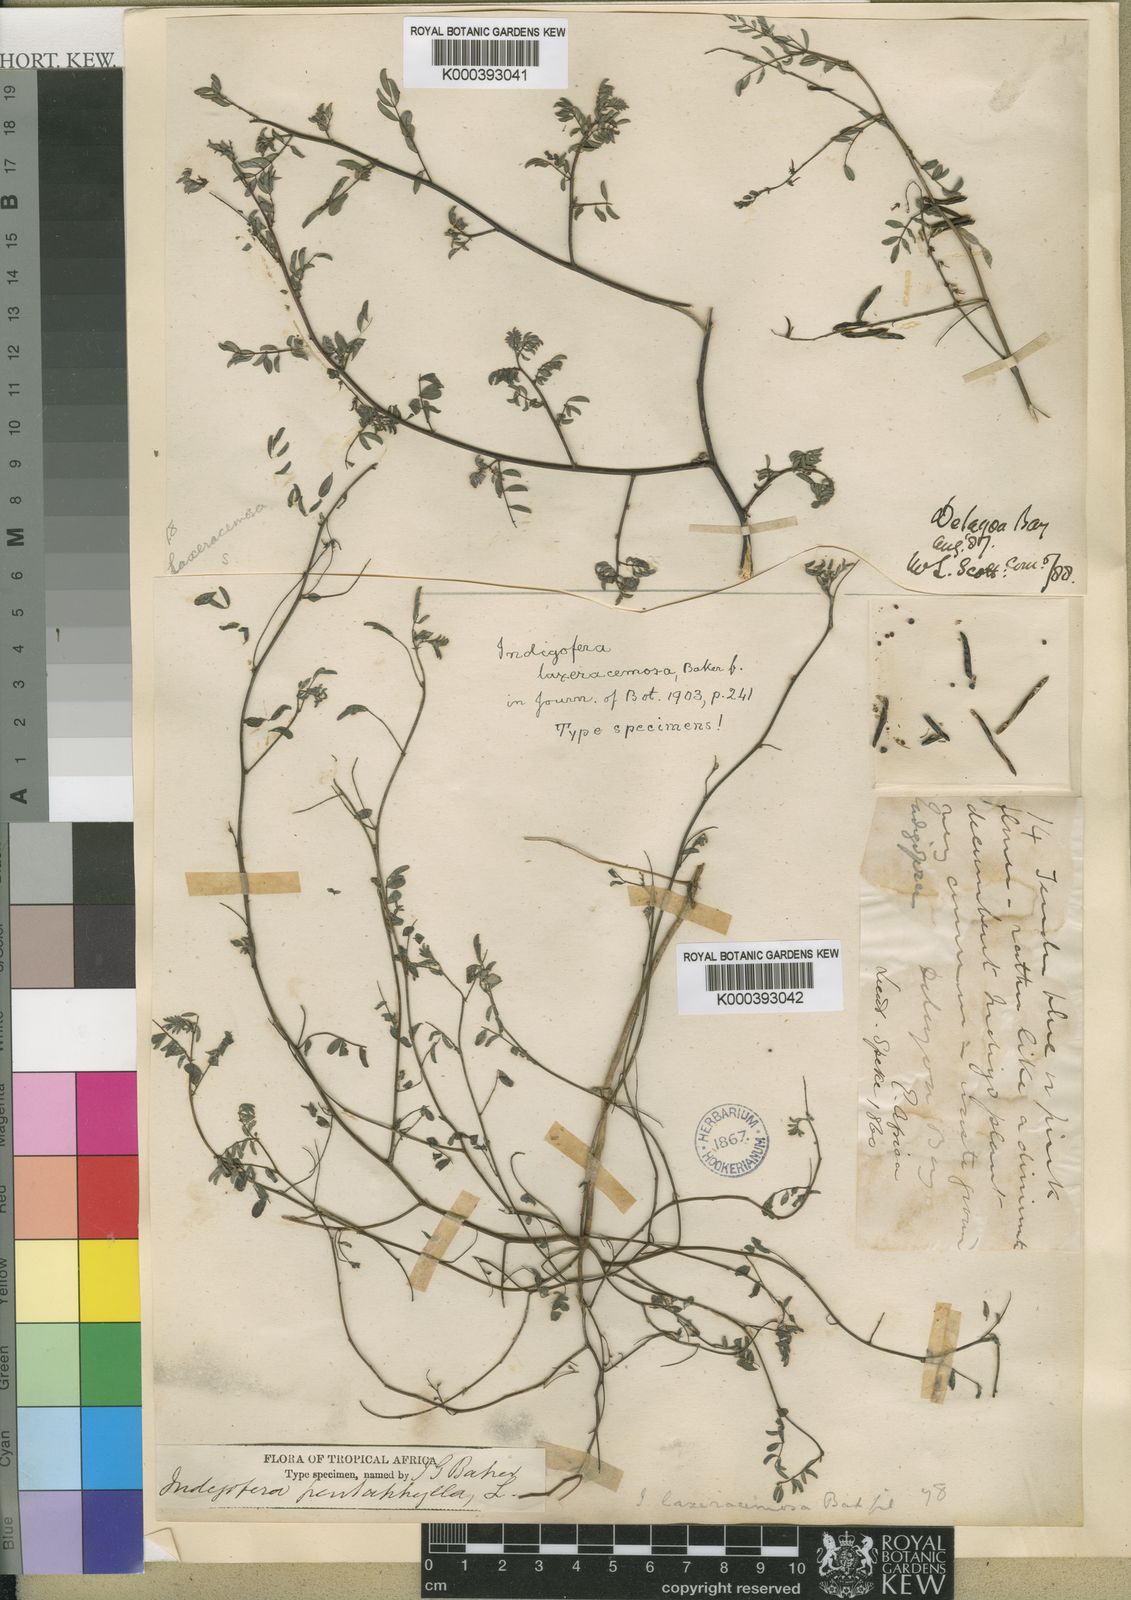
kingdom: Plantae
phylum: Tracheophyta
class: Magnoliopsida
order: Fabales
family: Fabaceae
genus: Indigofera
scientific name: Indigofera laxeracemosa
